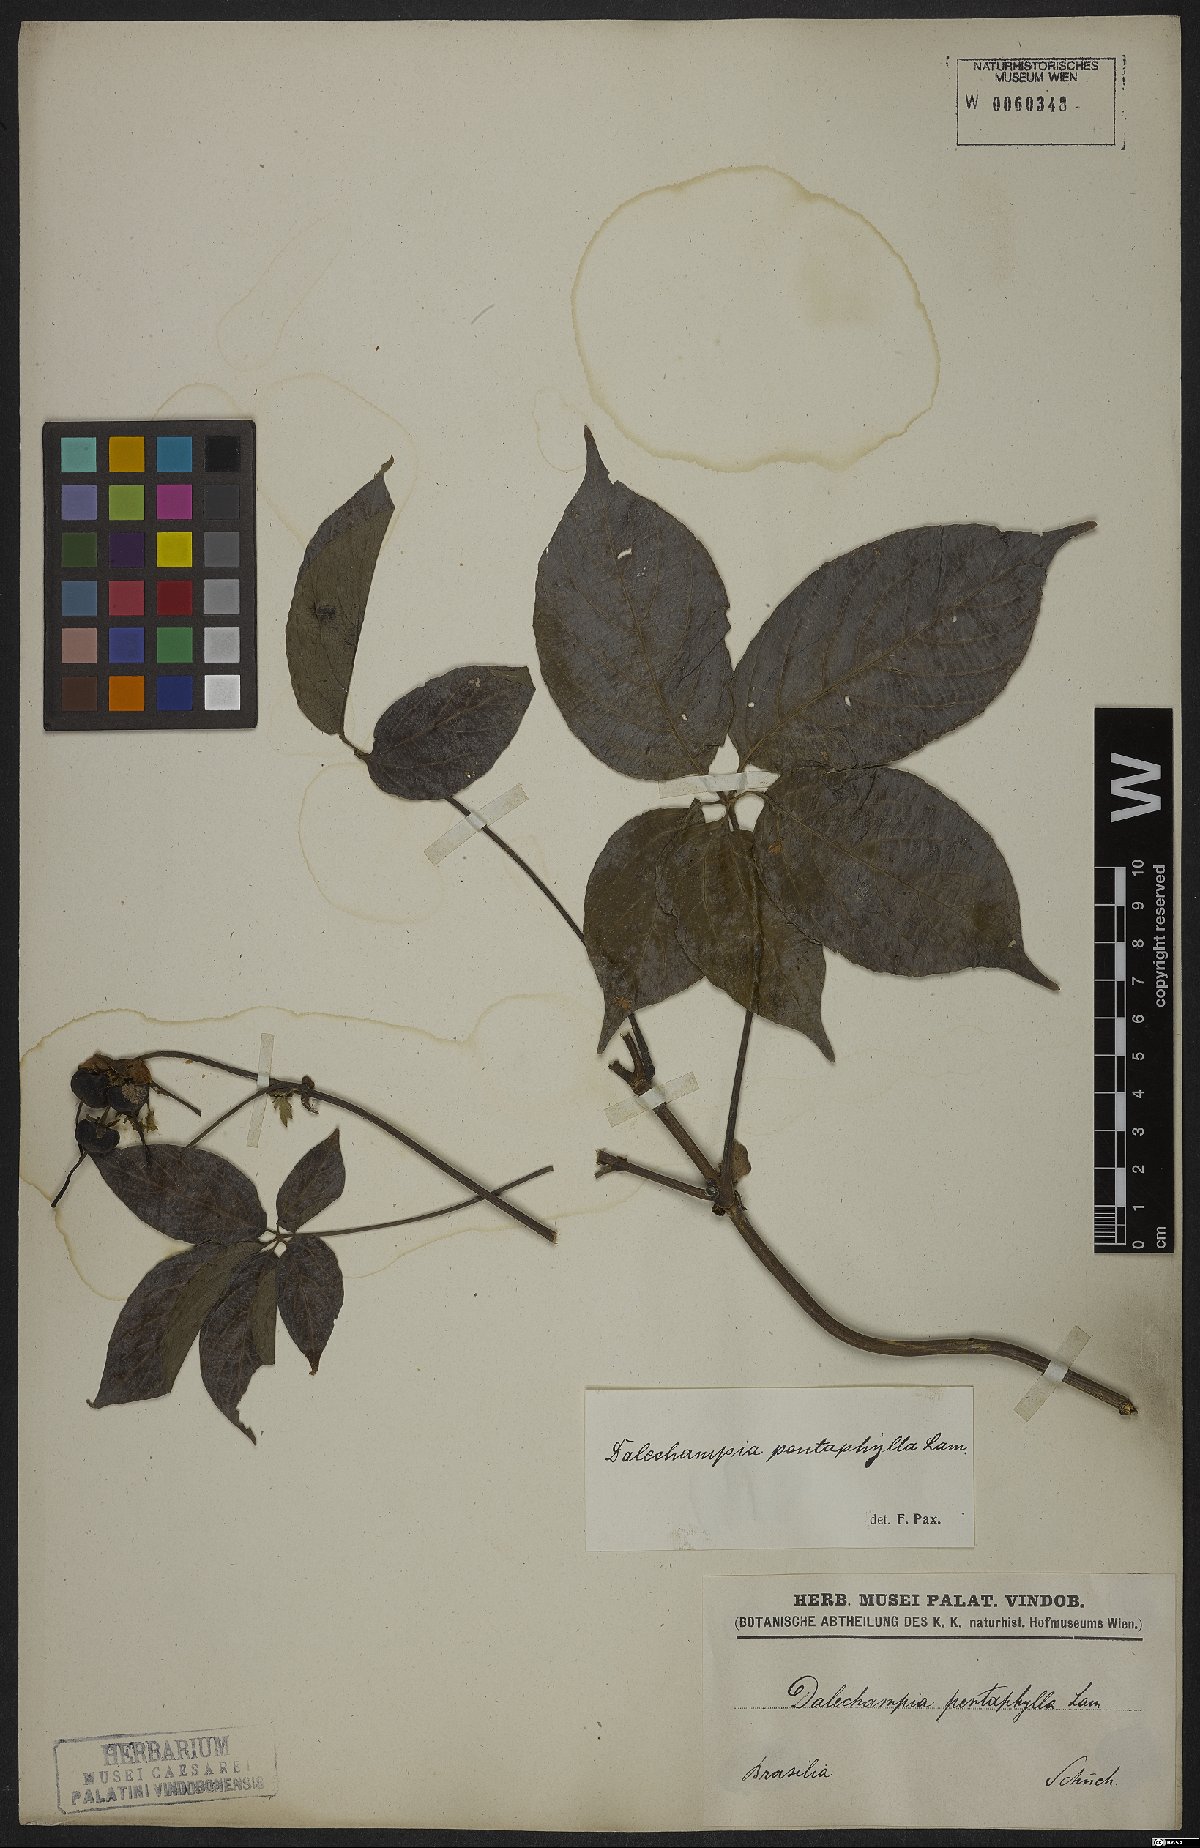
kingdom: Plantae
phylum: Tracheophyta
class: Magnoliopsida
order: Malpighiales
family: Euphorbiaceae
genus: Dalechampia
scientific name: Dalechampia pentaphylla
